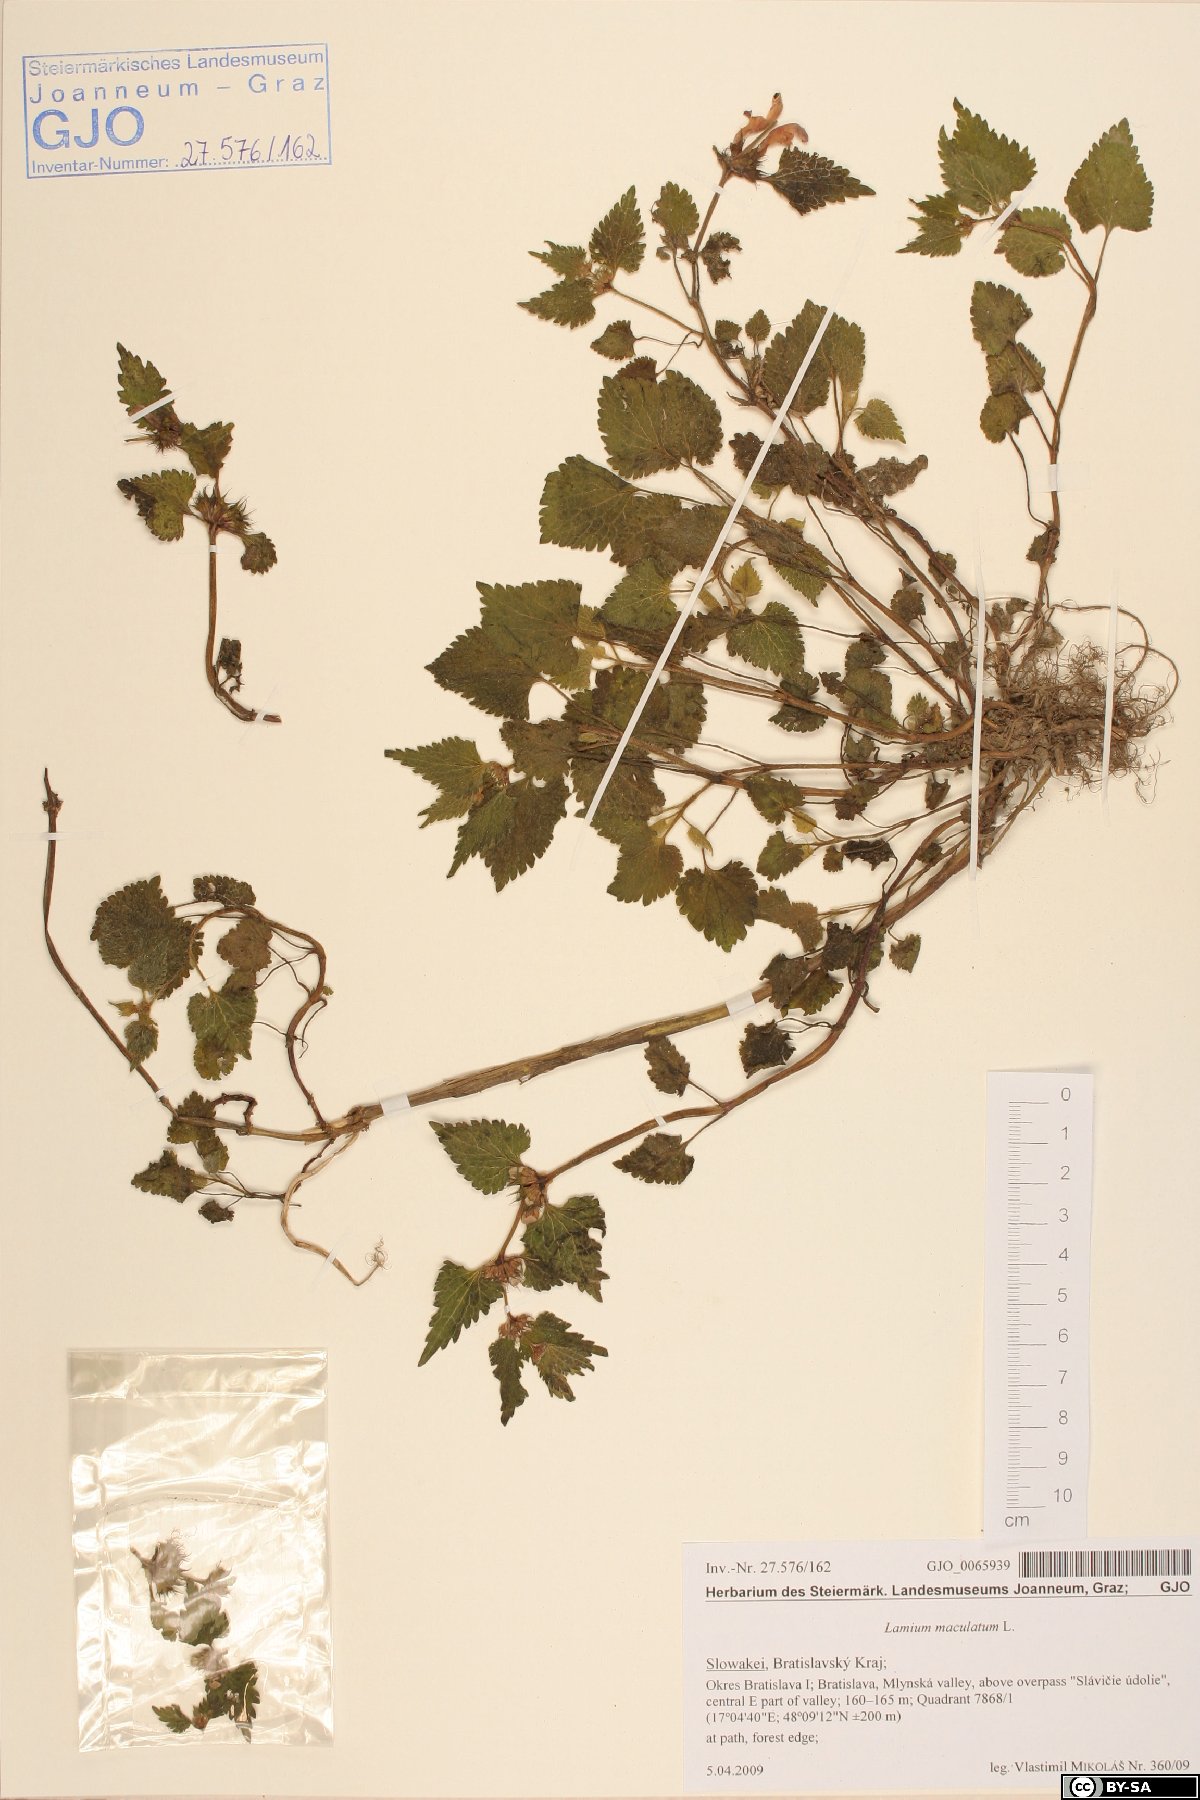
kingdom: Plantae
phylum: Tracheophyta
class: Magnoliopsida
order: Lamiales
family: Lamiaceae
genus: Lamium
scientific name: Lamium maculatum
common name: Spotted dead-nettle
